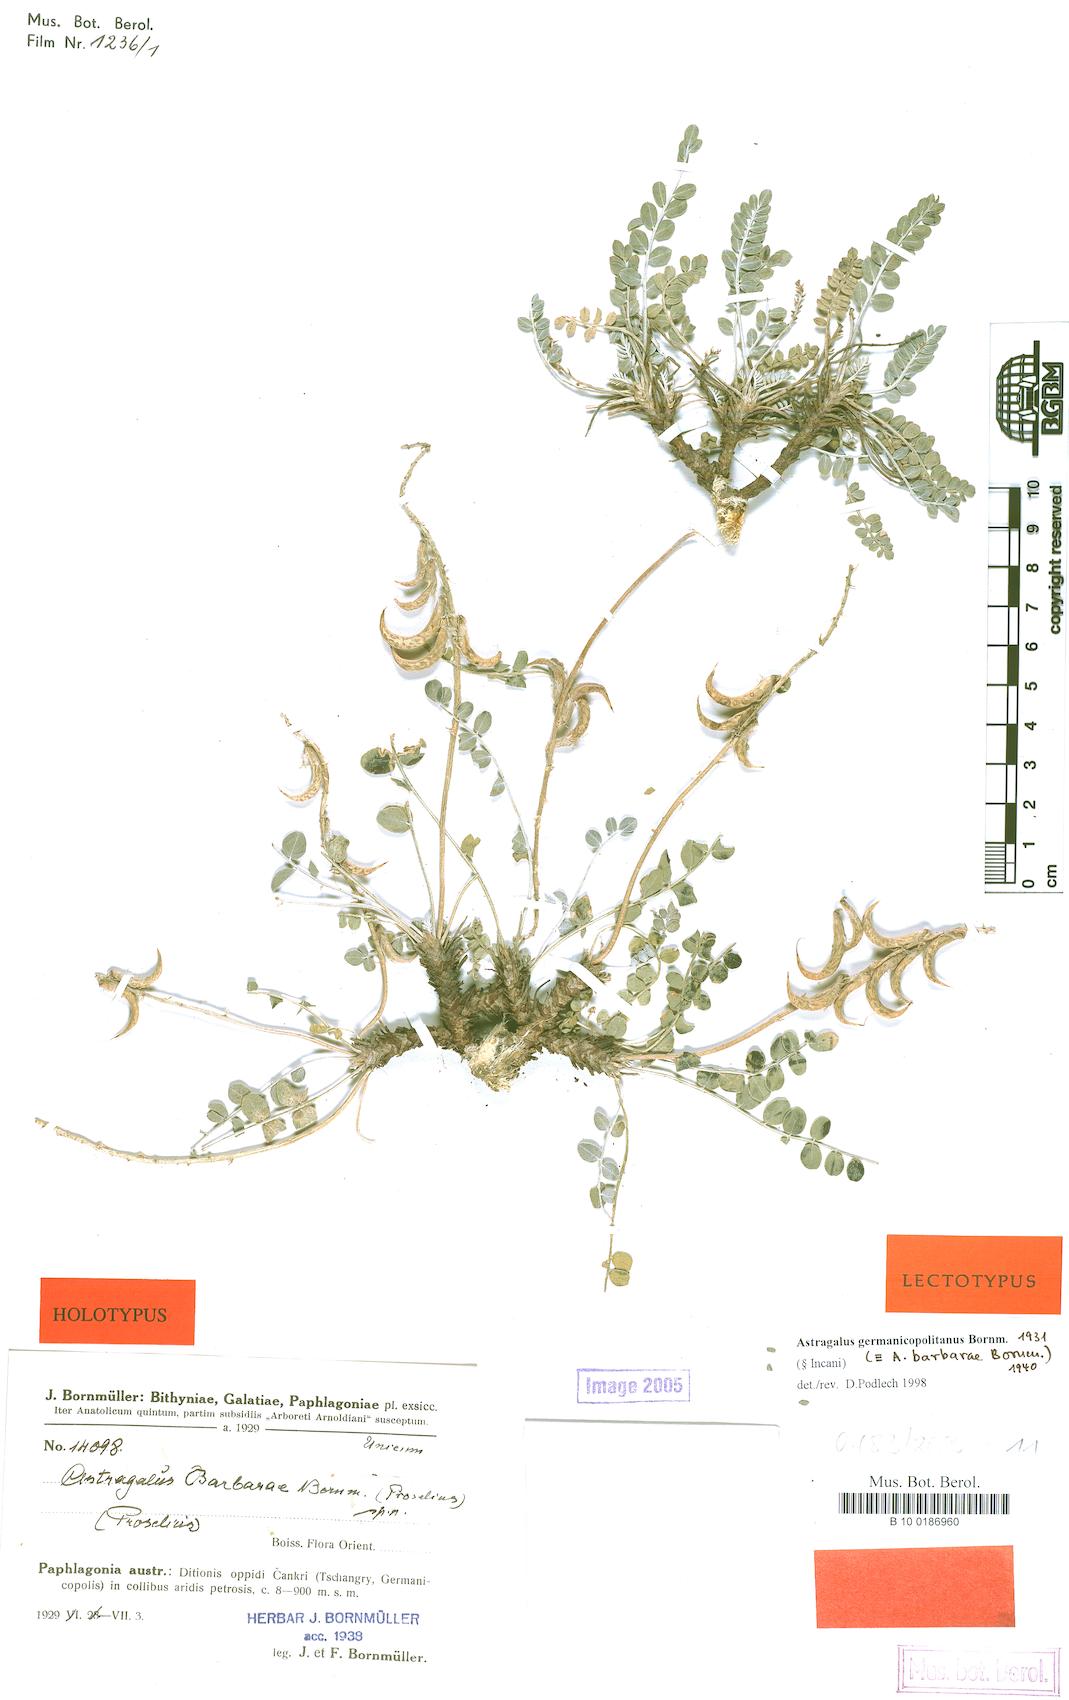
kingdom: Plantae
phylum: Tracheophyta
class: Magnoliopsida
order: Fabales
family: Fabaceae
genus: Astragalus
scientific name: Astragalus germanicopolitanus
